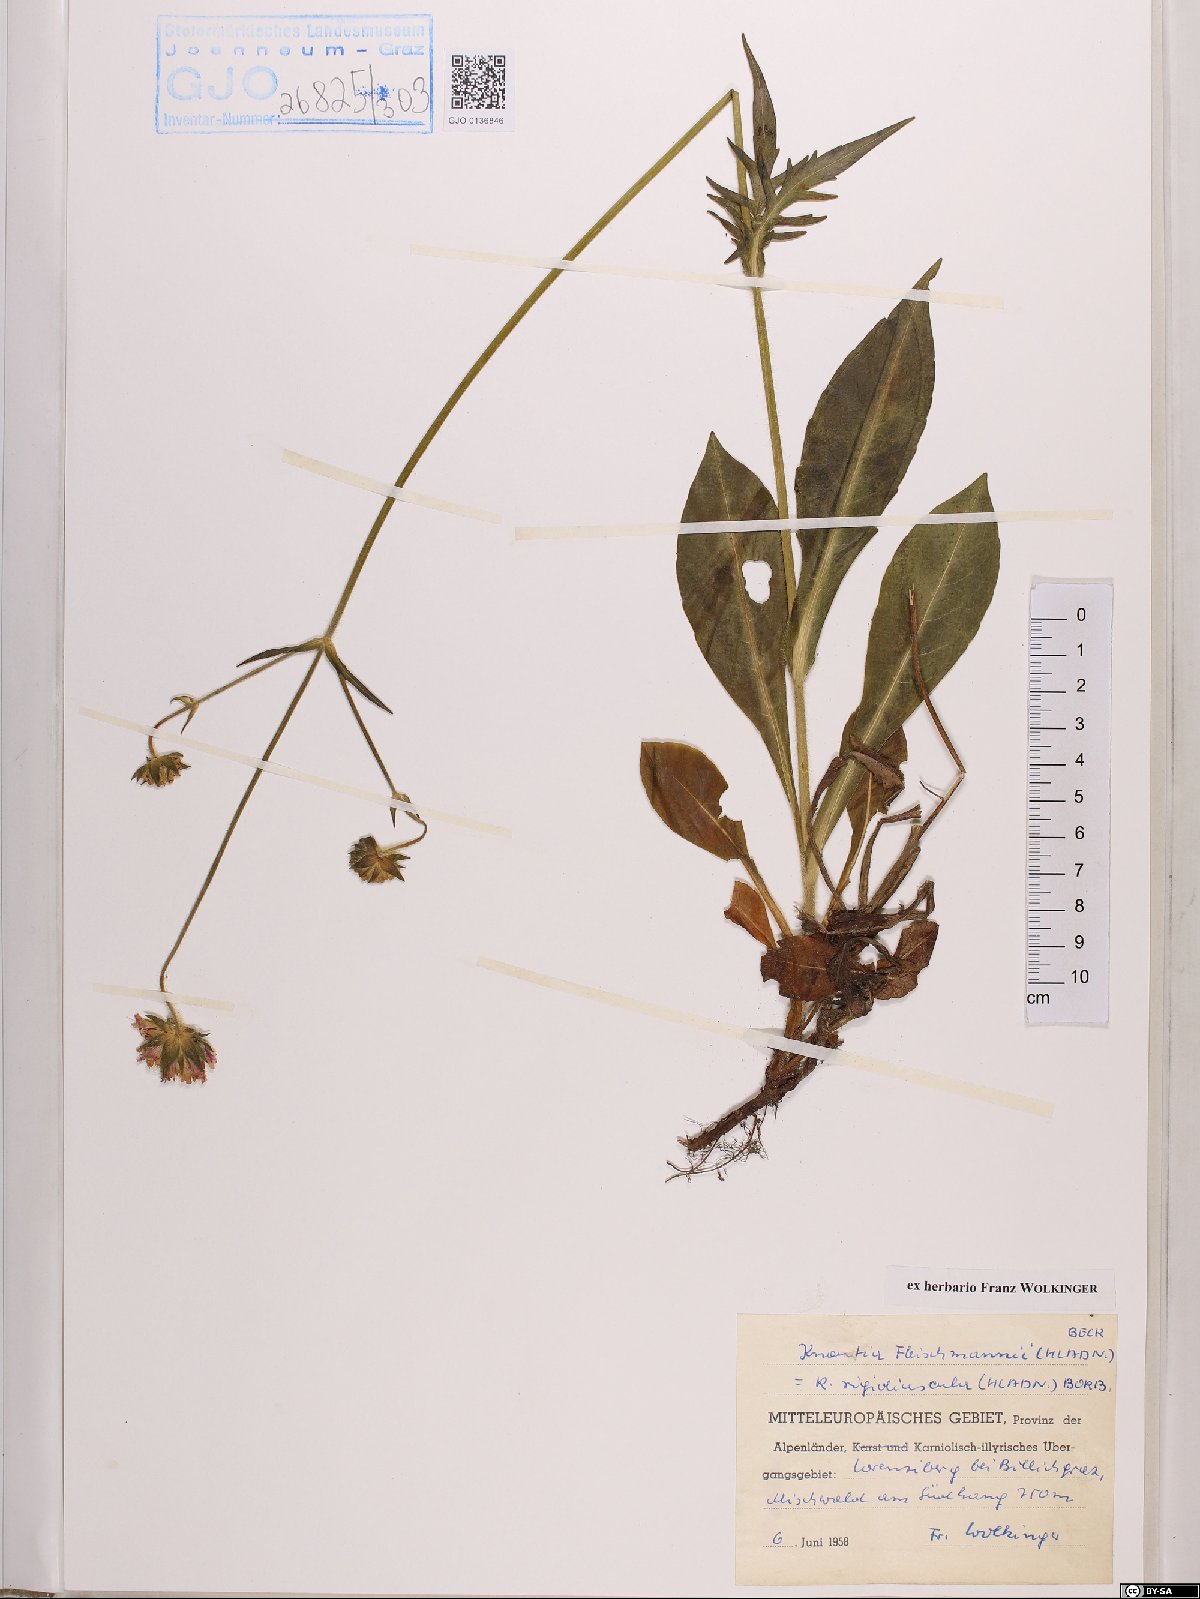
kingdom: Plantae
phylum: Tracheophyta
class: Magnoliopsida
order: Dipsacales
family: Caprifoliaceae
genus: Knautia
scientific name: Knautia fleischmannii
